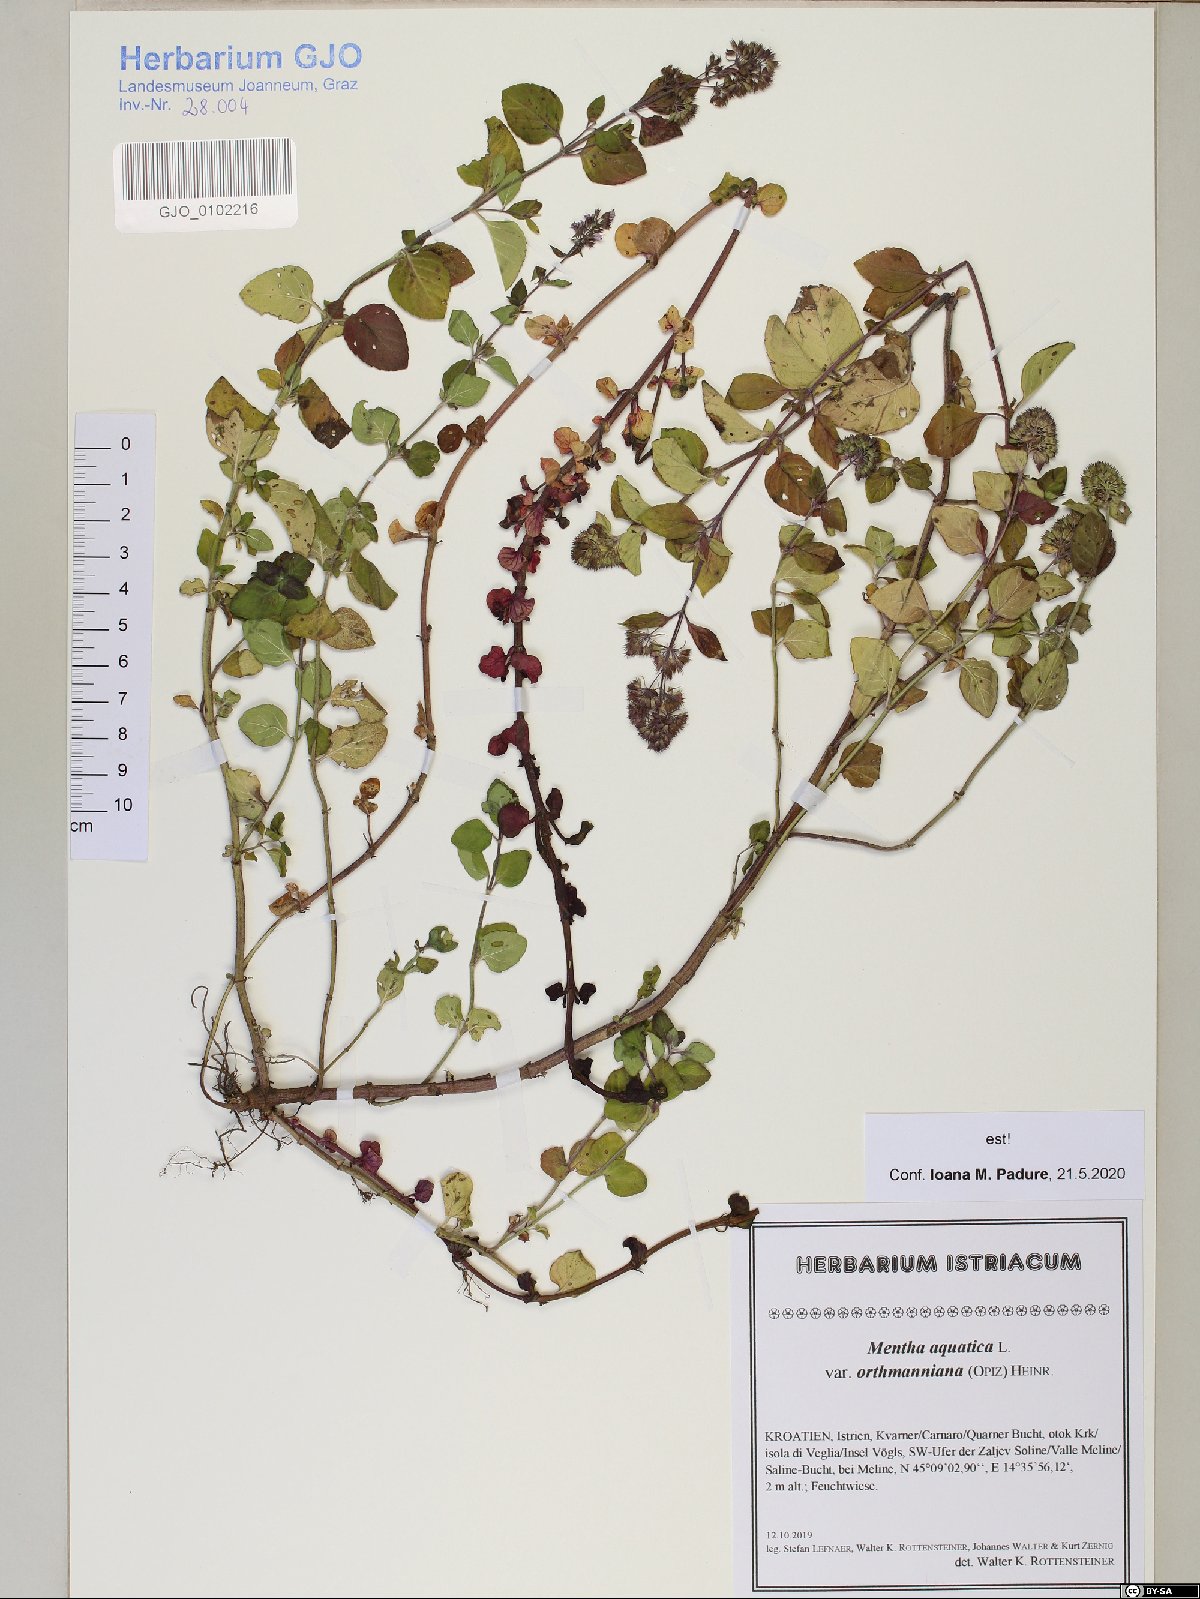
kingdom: Plantae
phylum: Tracheophyta
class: Magnoliopsida
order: Lamiales
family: Lamiaceae
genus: Mentha
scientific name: Mentha aquatica
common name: Water mint
